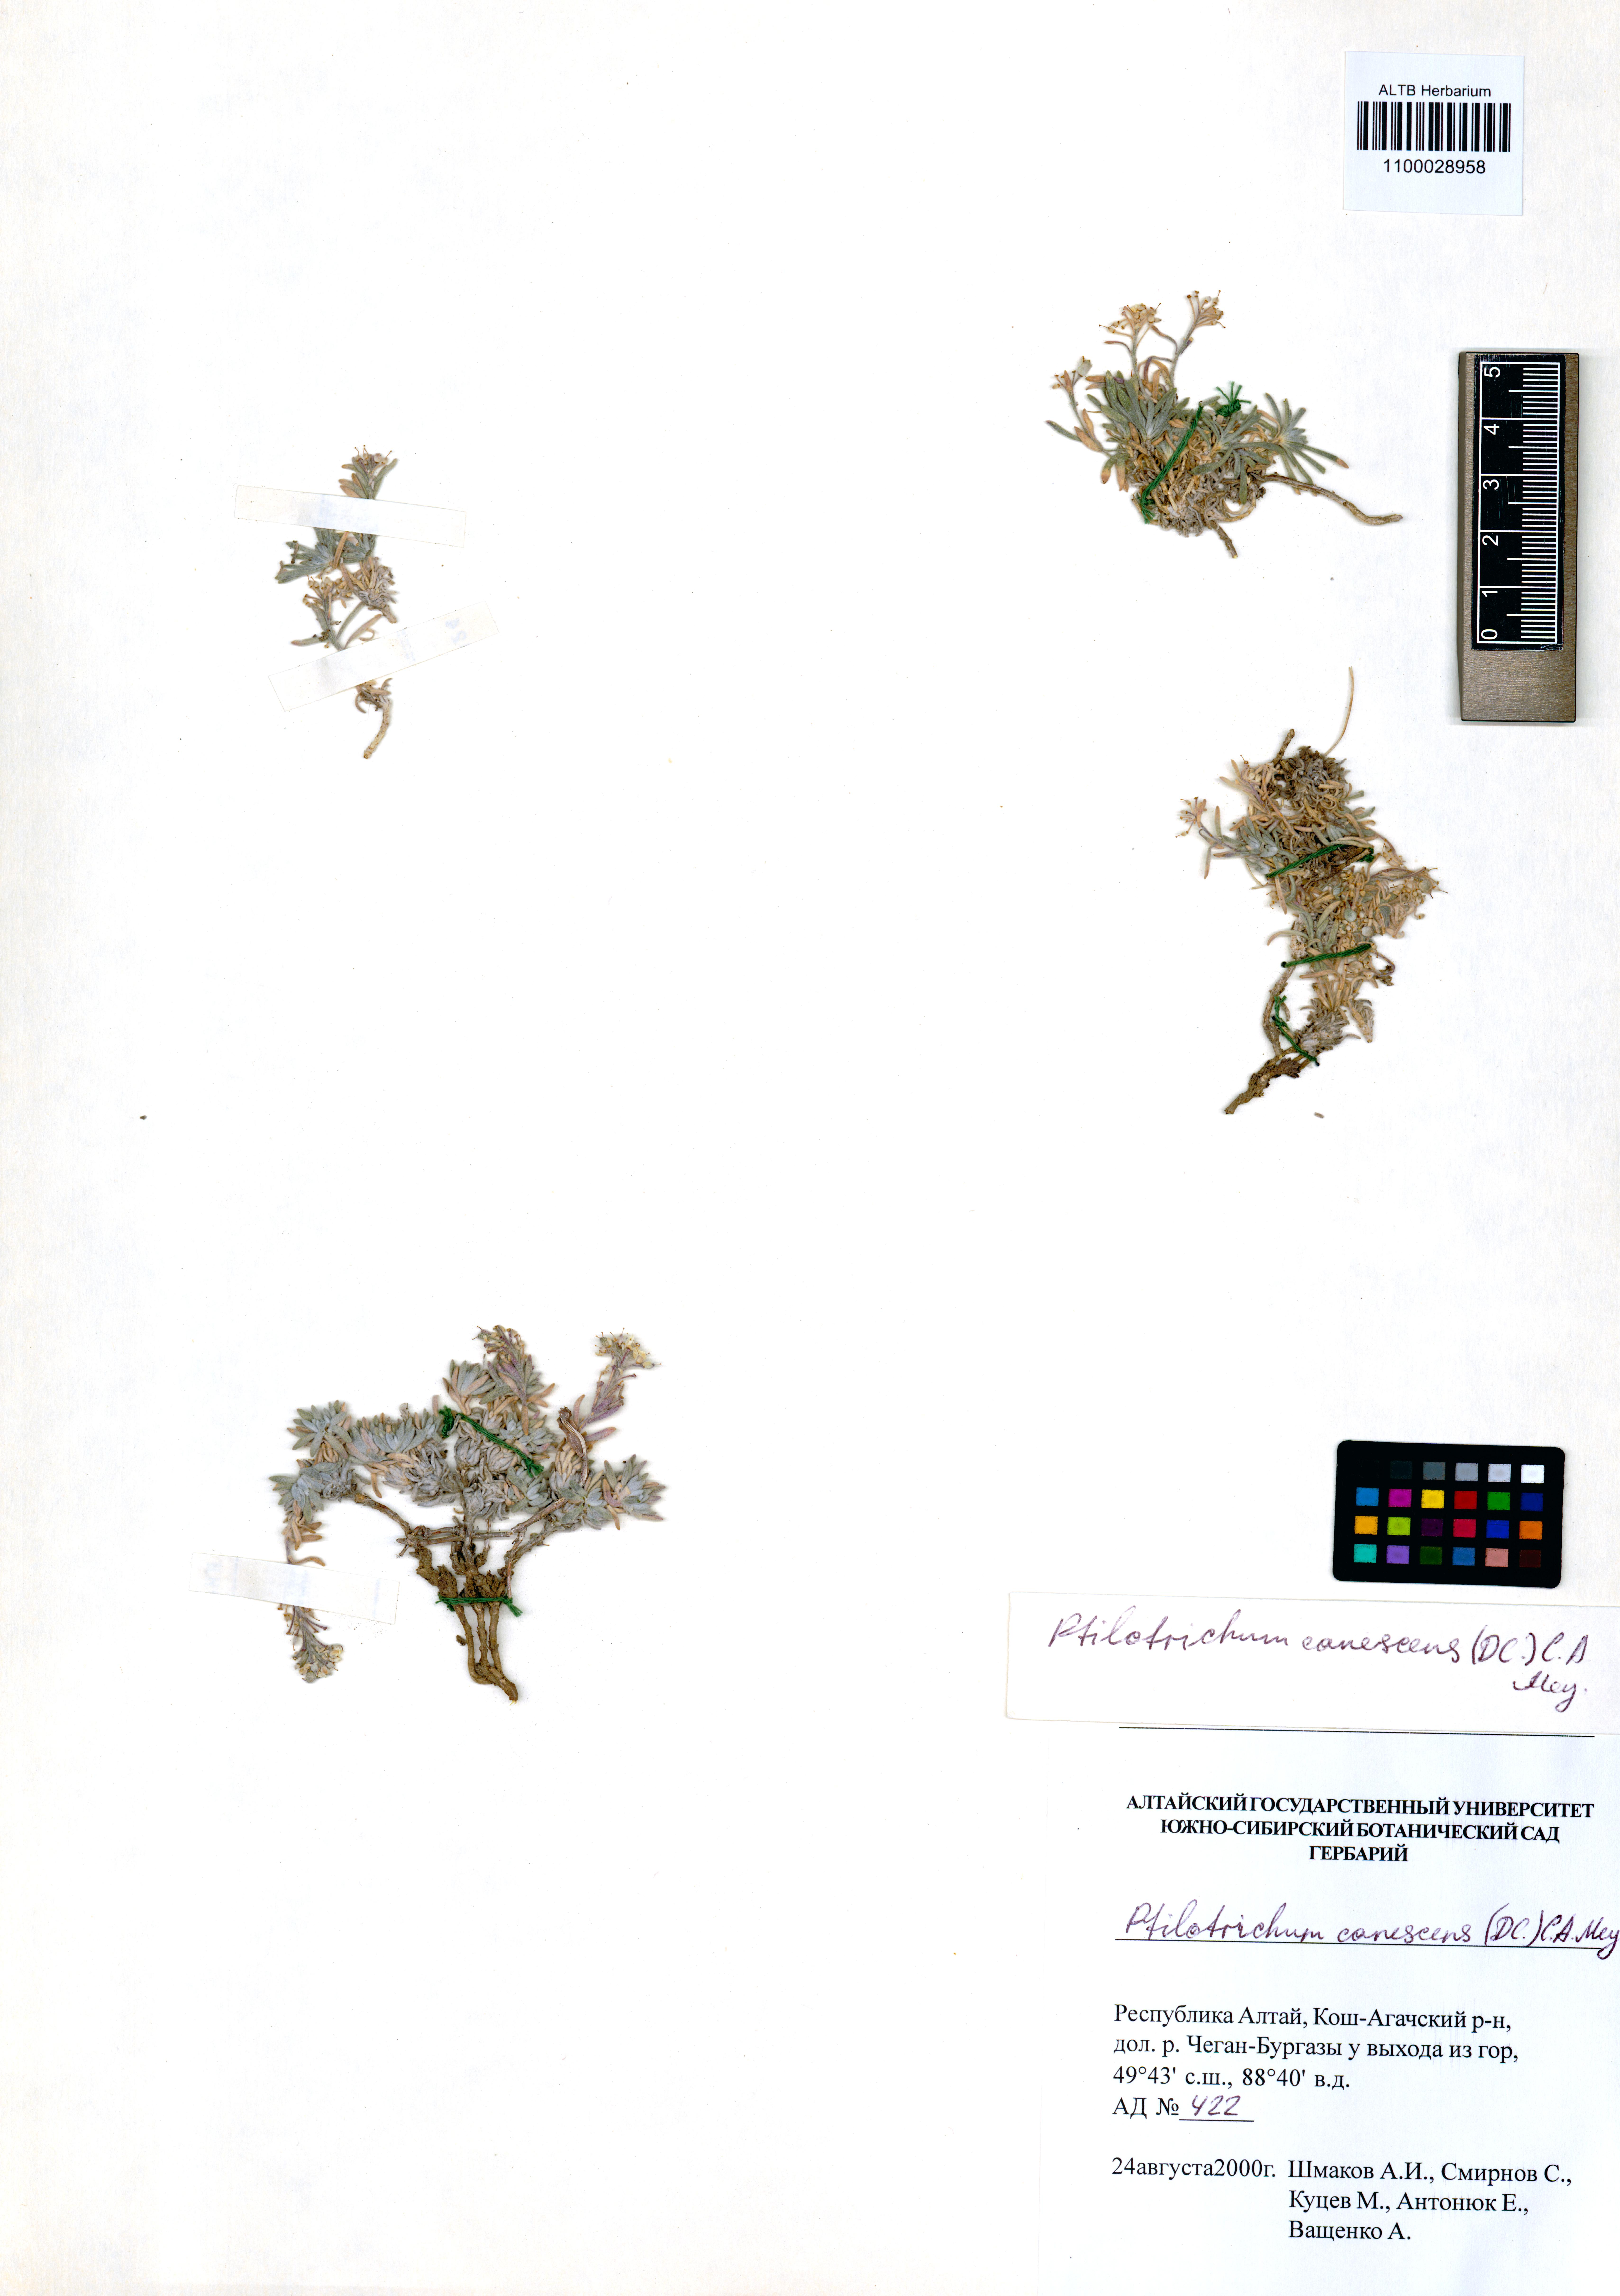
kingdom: Plantae
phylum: Tracheophyta
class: Magnoliopsida
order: Brassicales
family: Brassicaceae
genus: Stevenia
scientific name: Stevenia canescens
